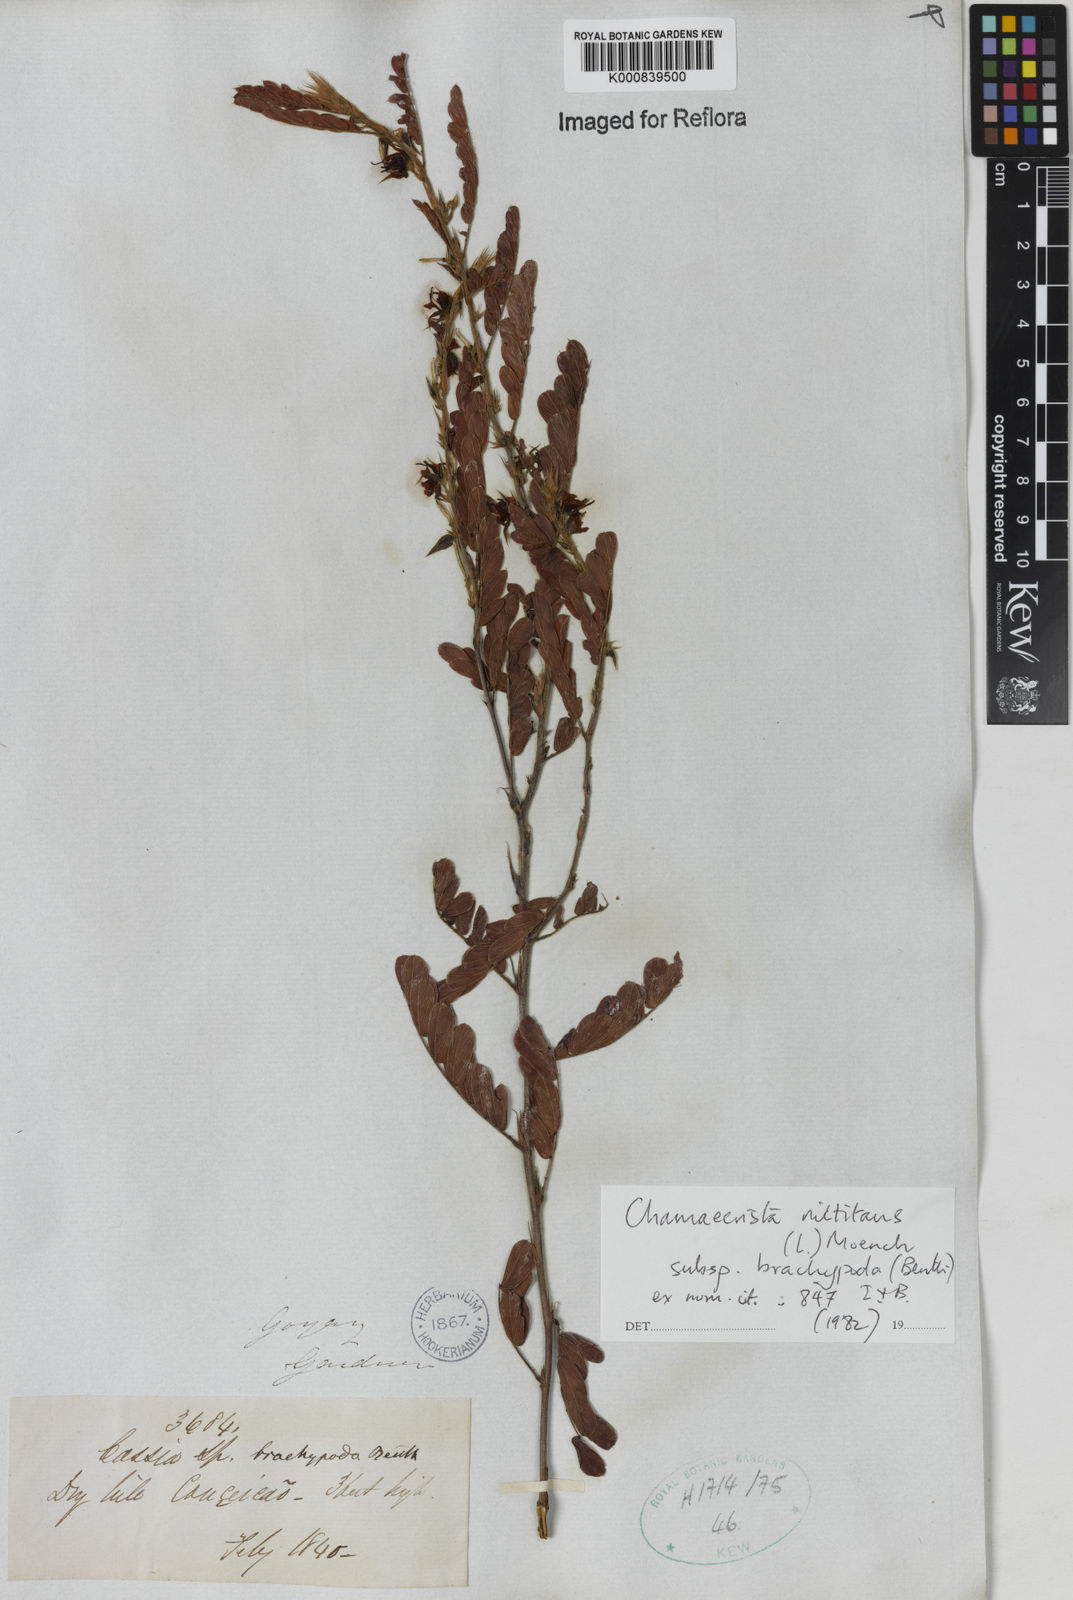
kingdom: Plantae
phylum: Tracheophyta
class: Magnoliopsida
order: Fabales
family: Fabaceae
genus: Chamaecrista
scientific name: Chamaecrista nictitans
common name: Sensitive cassia
